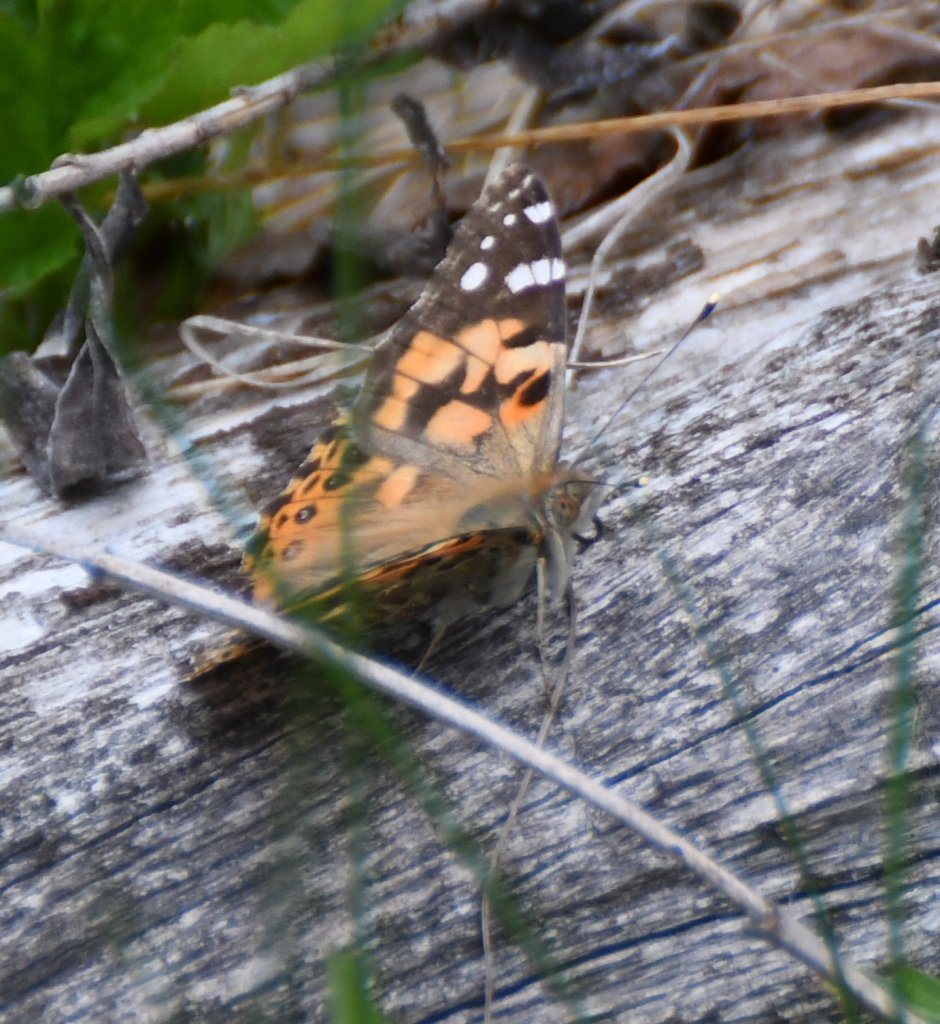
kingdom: Animalia
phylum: Arthropoda
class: Insecta
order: Lepidoptera
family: Nymphalidae
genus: Vanessa
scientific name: Vanessa cardui
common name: Painted Lady
